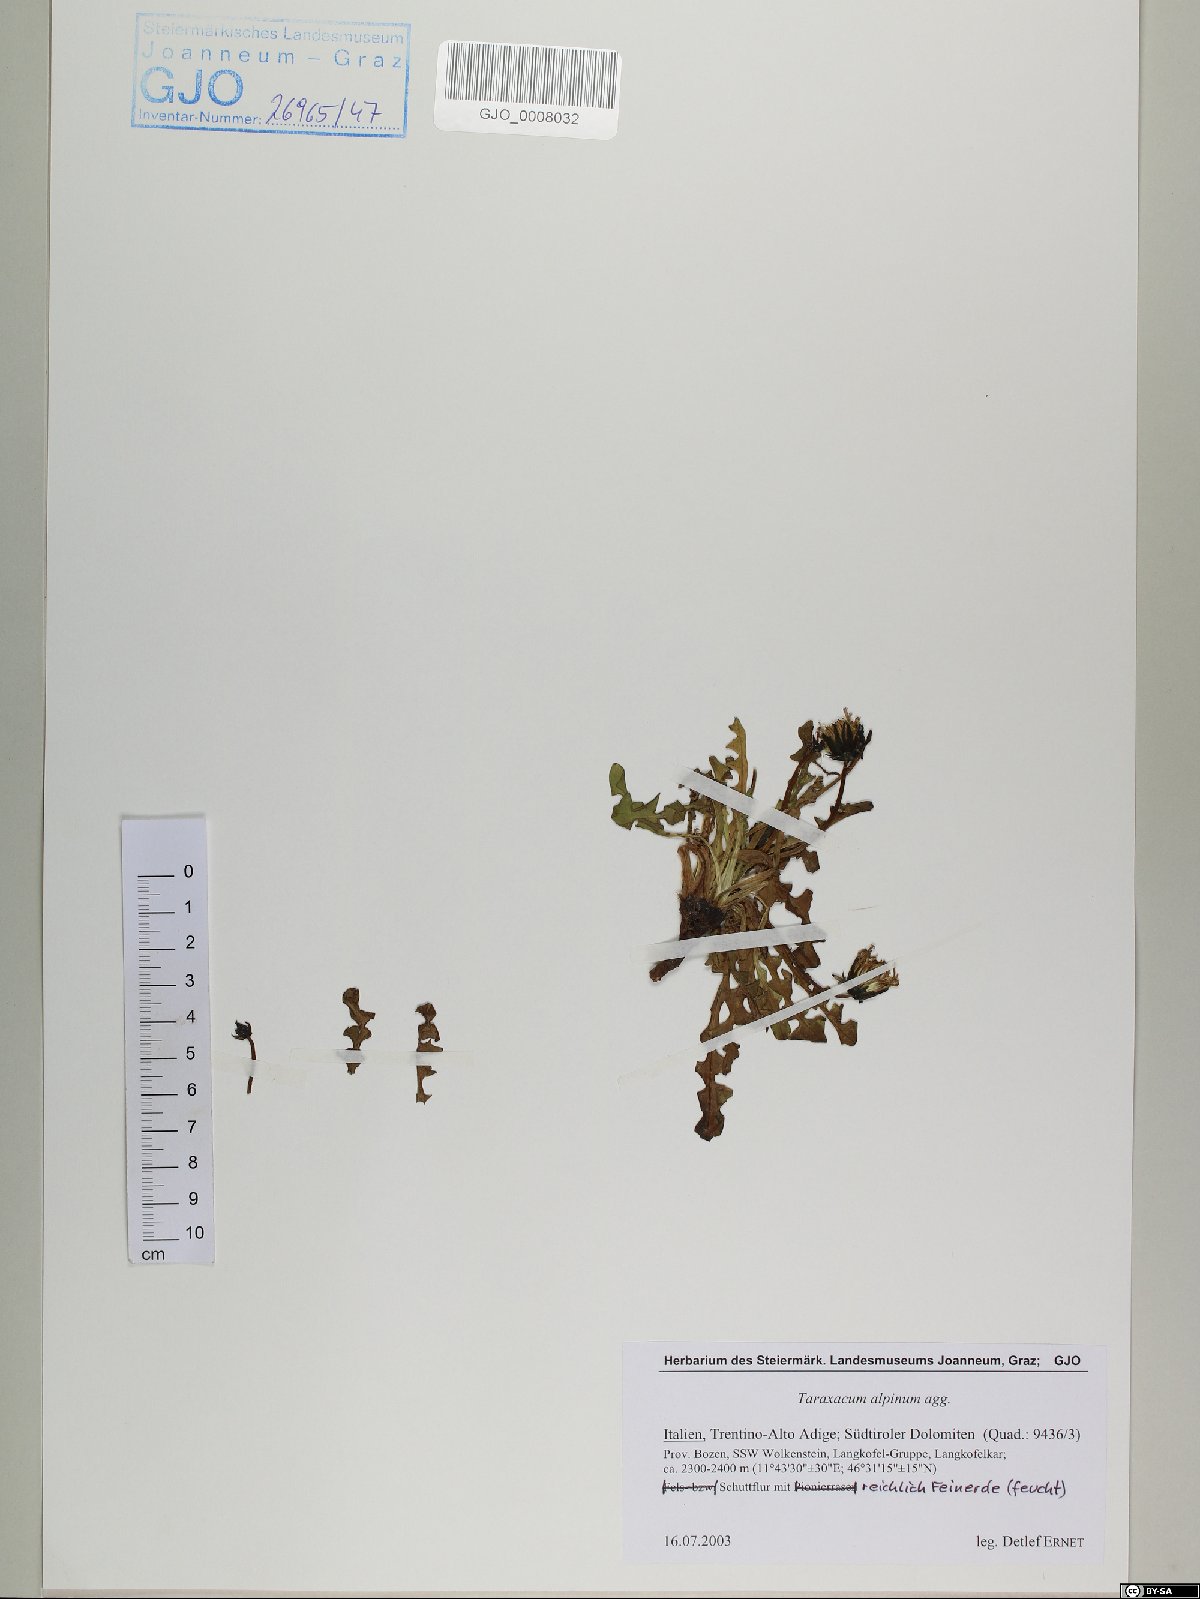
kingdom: Plantae
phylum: Tracheophyta
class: Magnoliopsida
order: Asterales
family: Asteraceae
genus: Taraxacum
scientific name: Taraxacum alpinum
